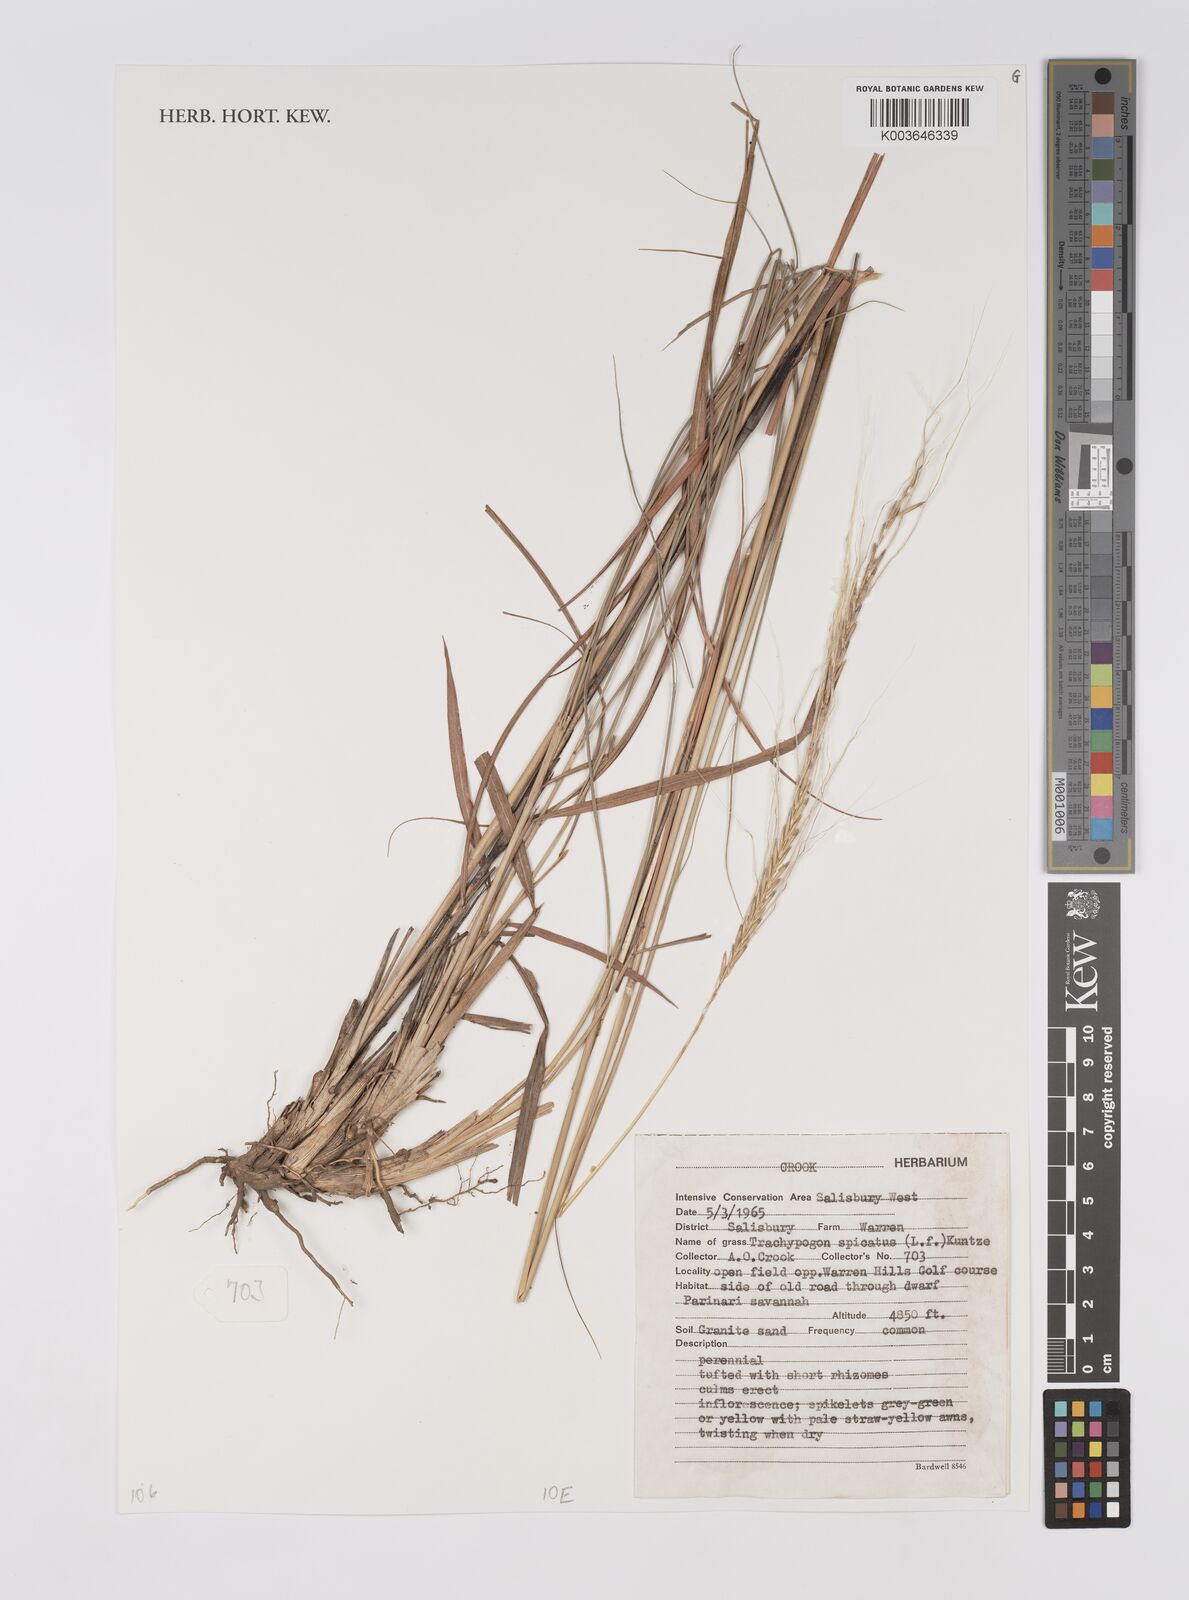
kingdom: Plantae
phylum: Tracheophyta
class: Liliopsida
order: Poales
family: Poaceae
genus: Trachypogon
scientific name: Trachypogon spicatus
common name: Crinkle-awn
